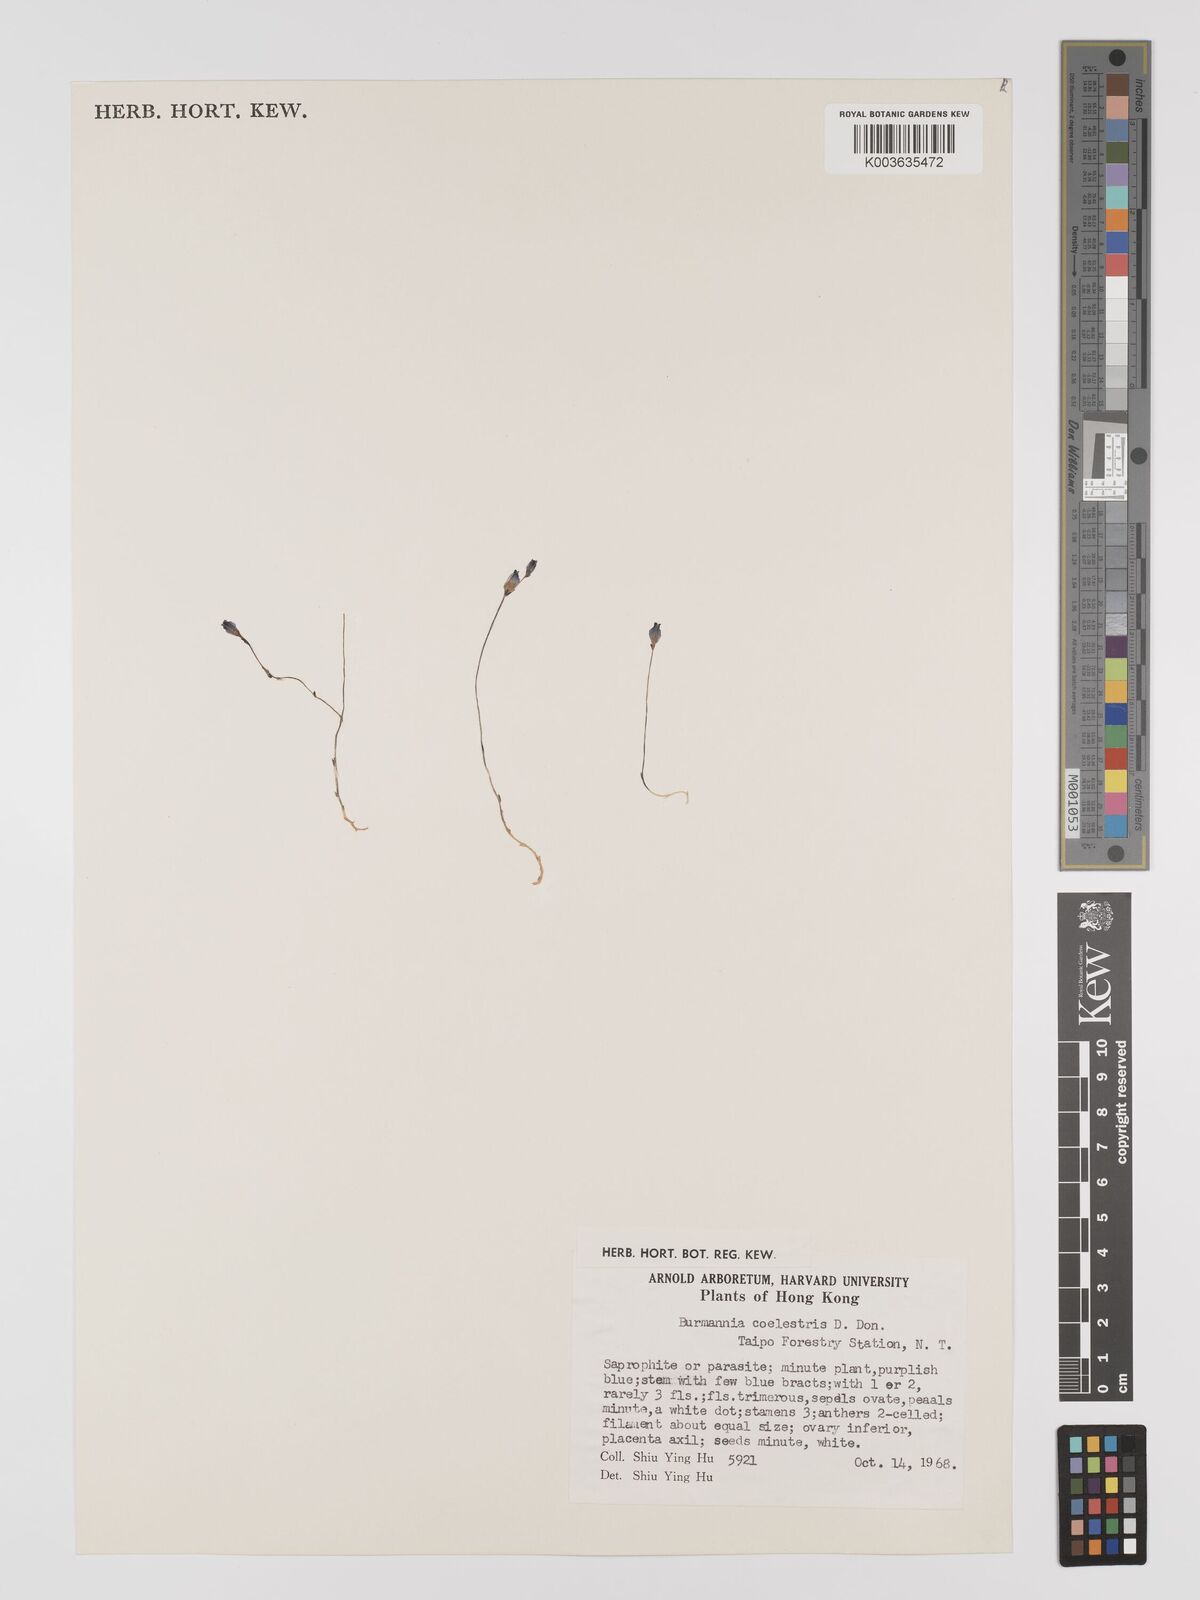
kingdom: Plantae
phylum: Tracheophyta
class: Liliopsida
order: Dioscoreales
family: Burmanniaceae
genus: Burmannia
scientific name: Burmannia coelestis
